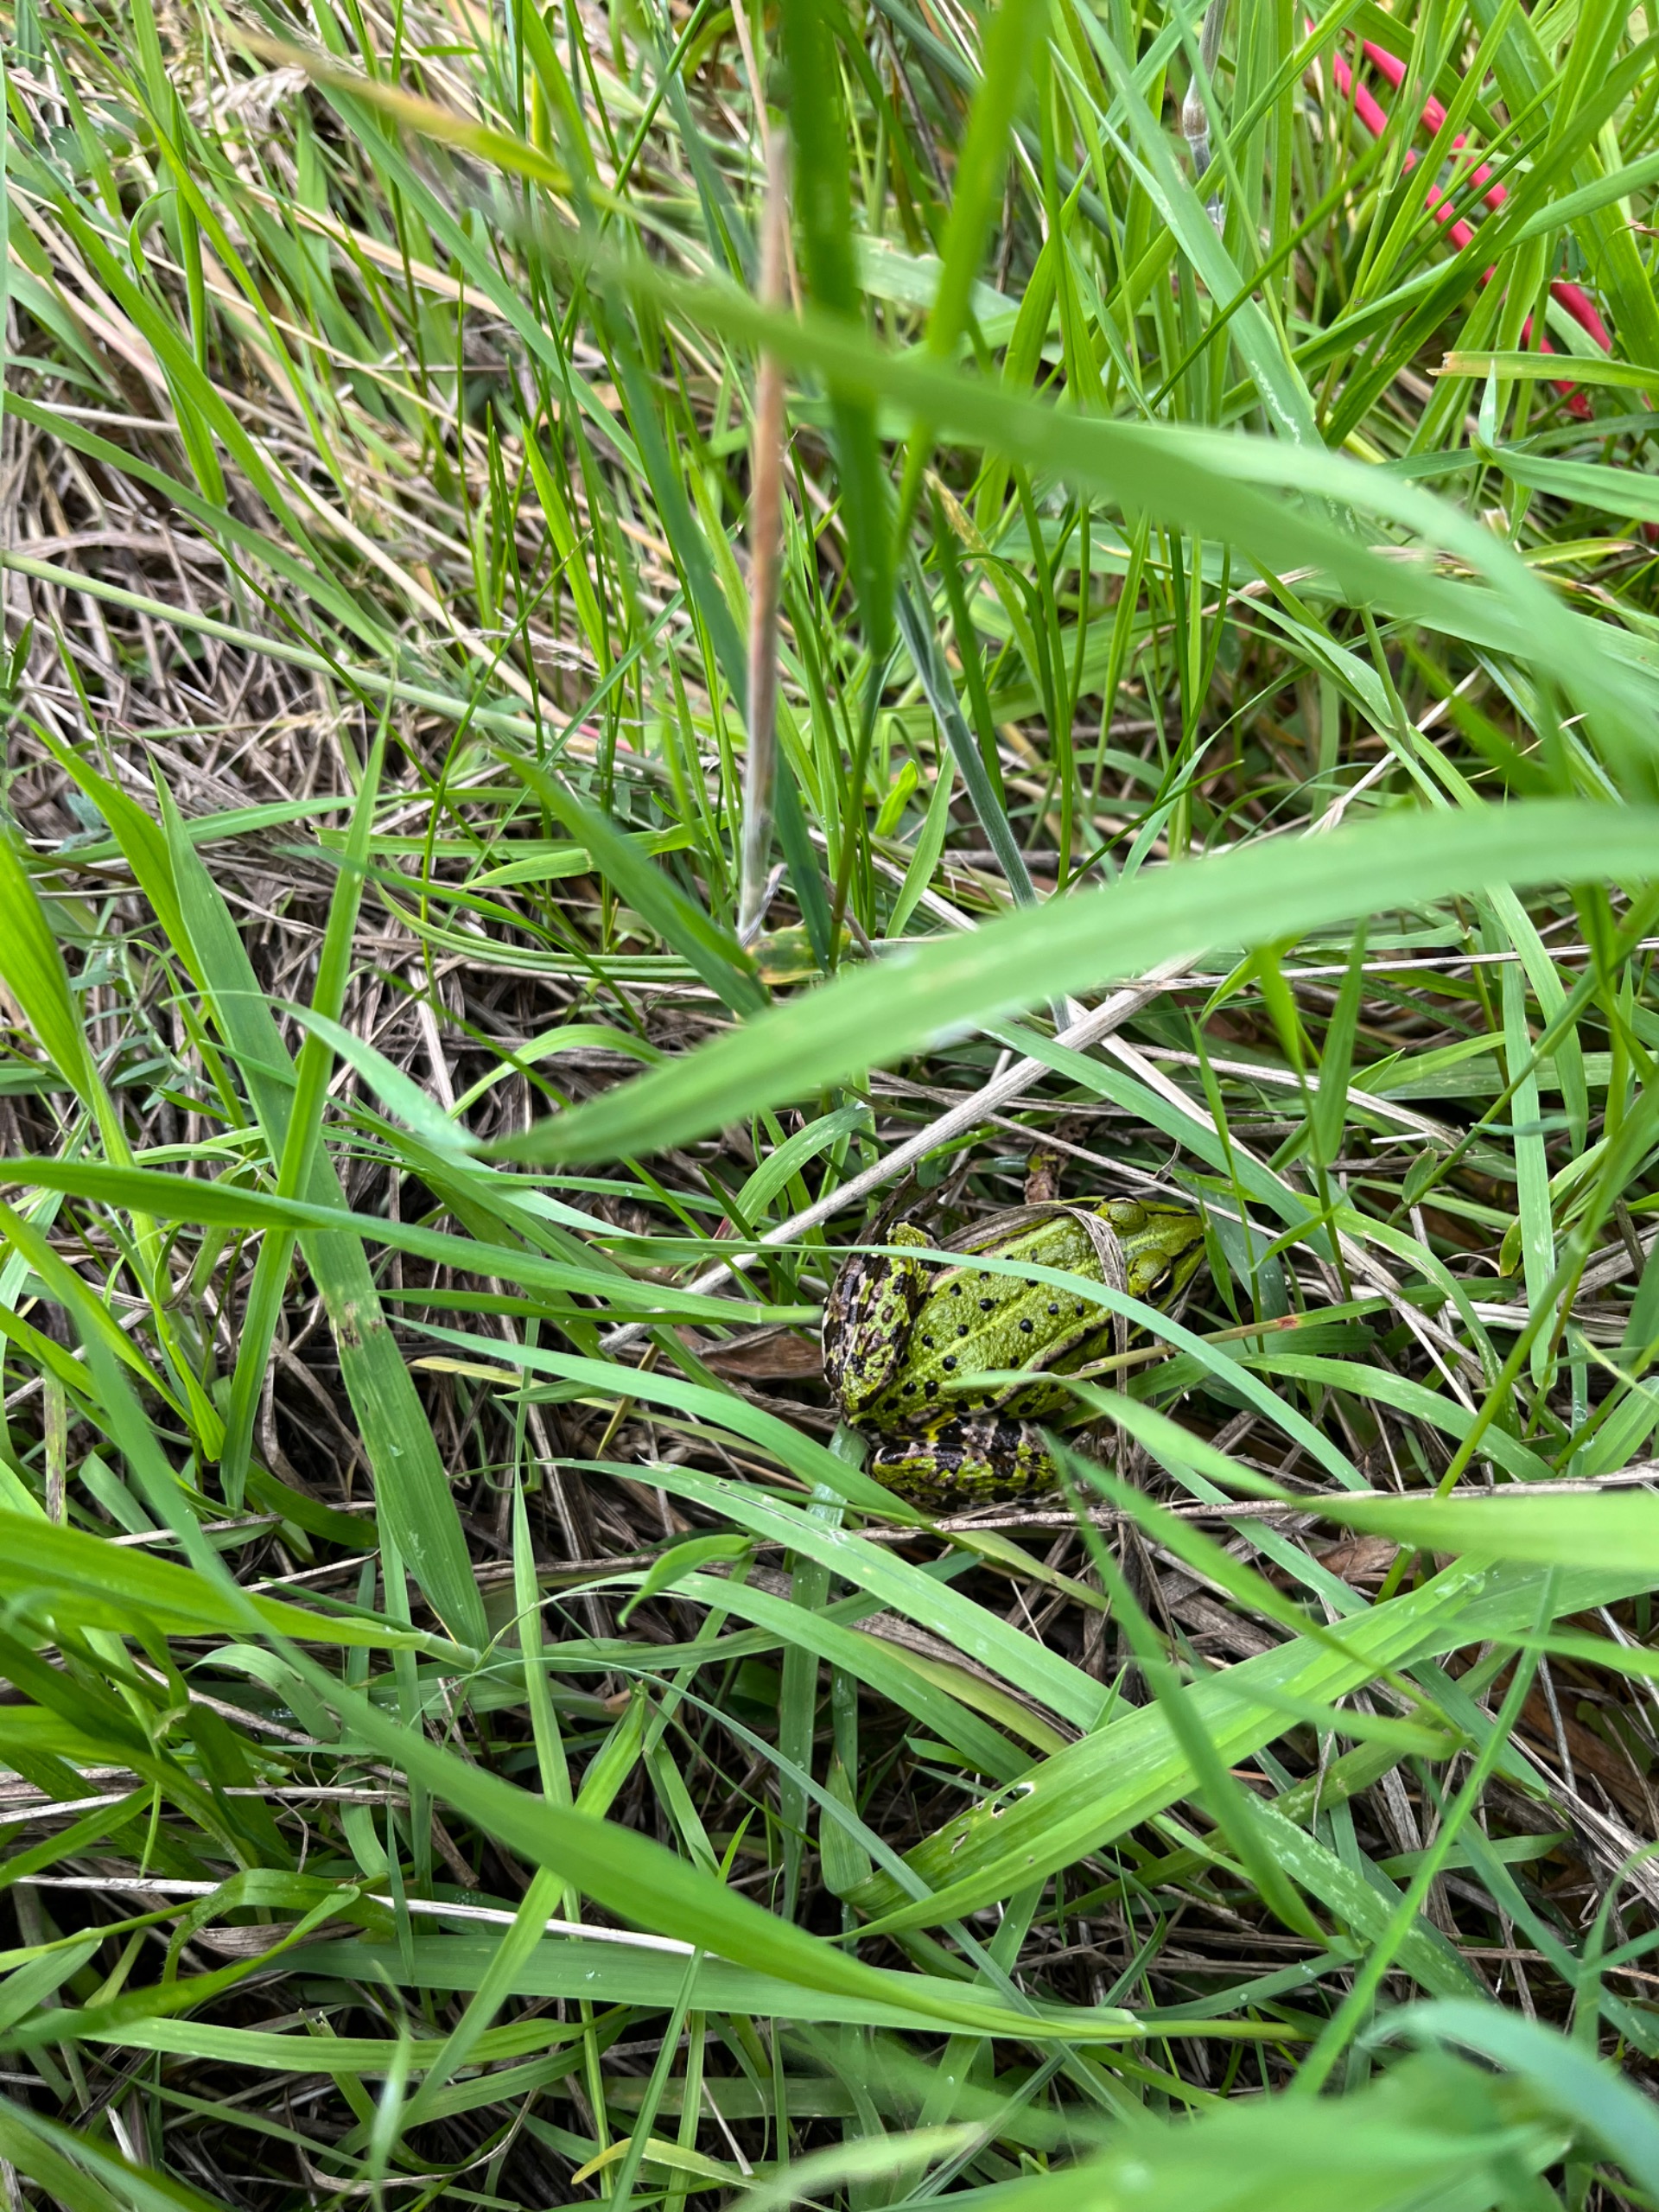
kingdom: Animalia
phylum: Chordata
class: Amphibia
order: Anura
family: Ranidae
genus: Pelophylax
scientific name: Pelophylax lessonae
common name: Grøn frø
